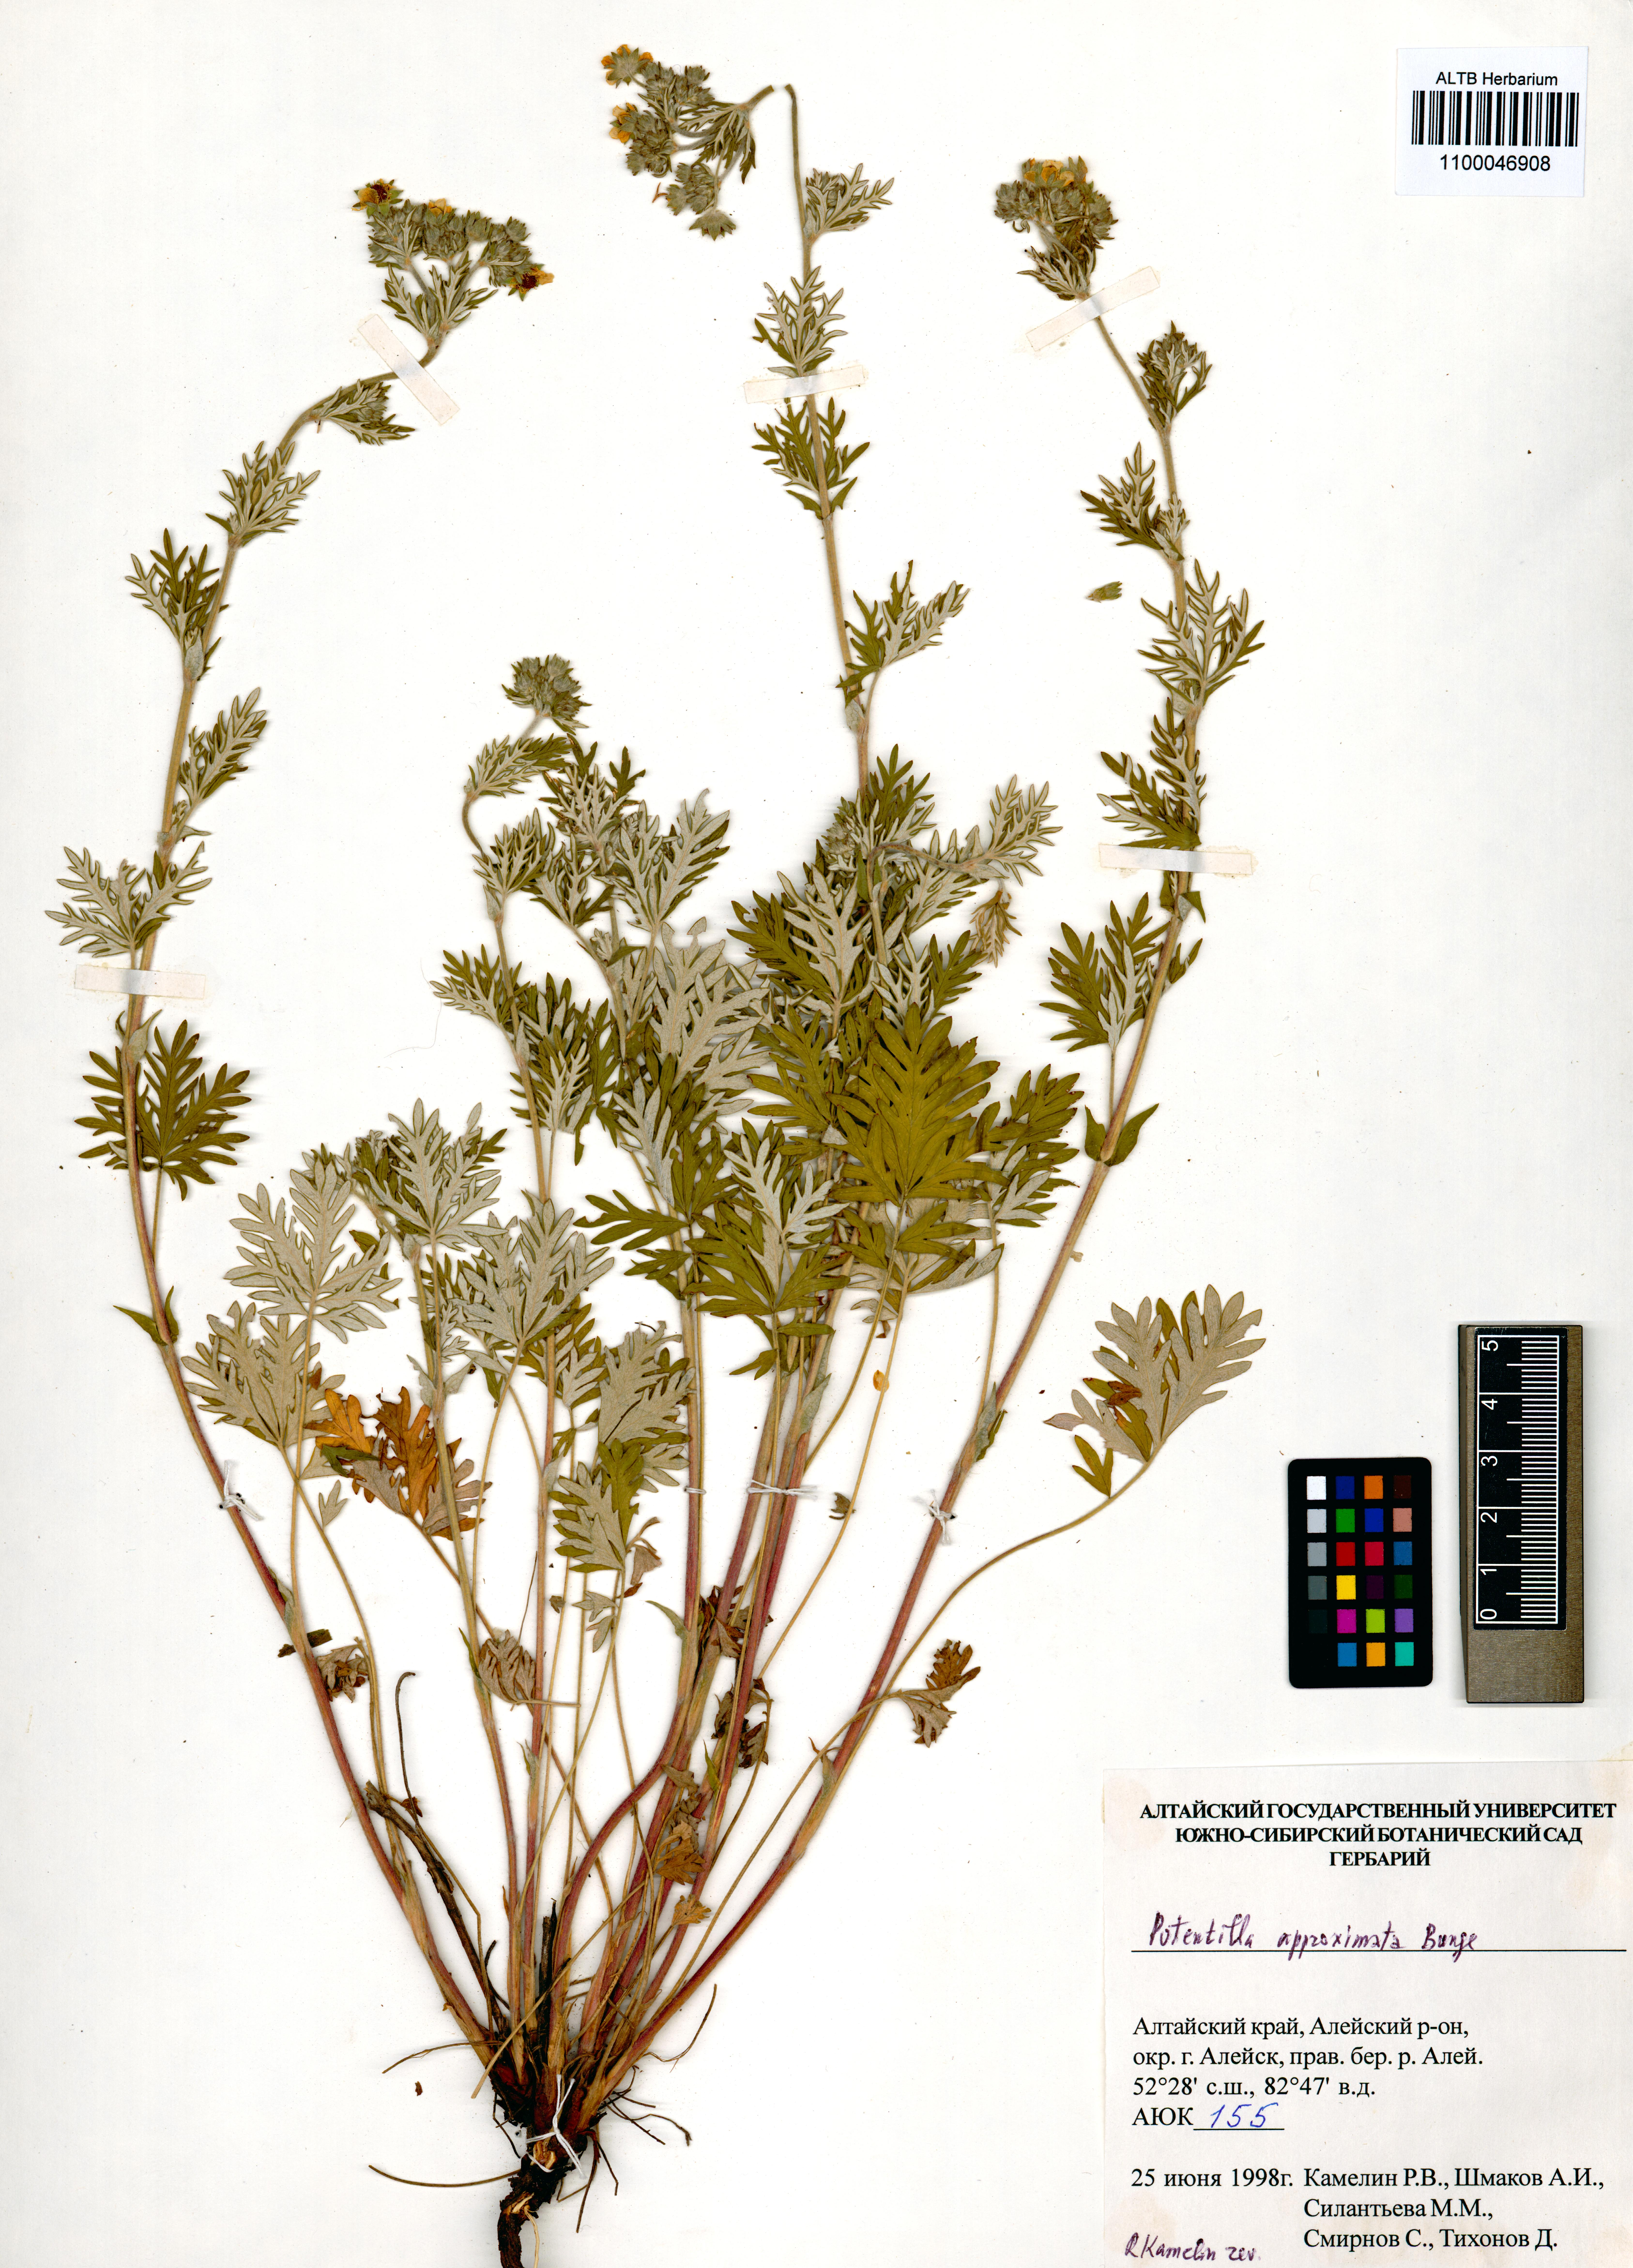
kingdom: Plantae
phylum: Tracheophyta
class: Magnoliopsida
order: Rosales
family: Rosaceae
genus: Potentilla
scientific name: Potentilla conferta
